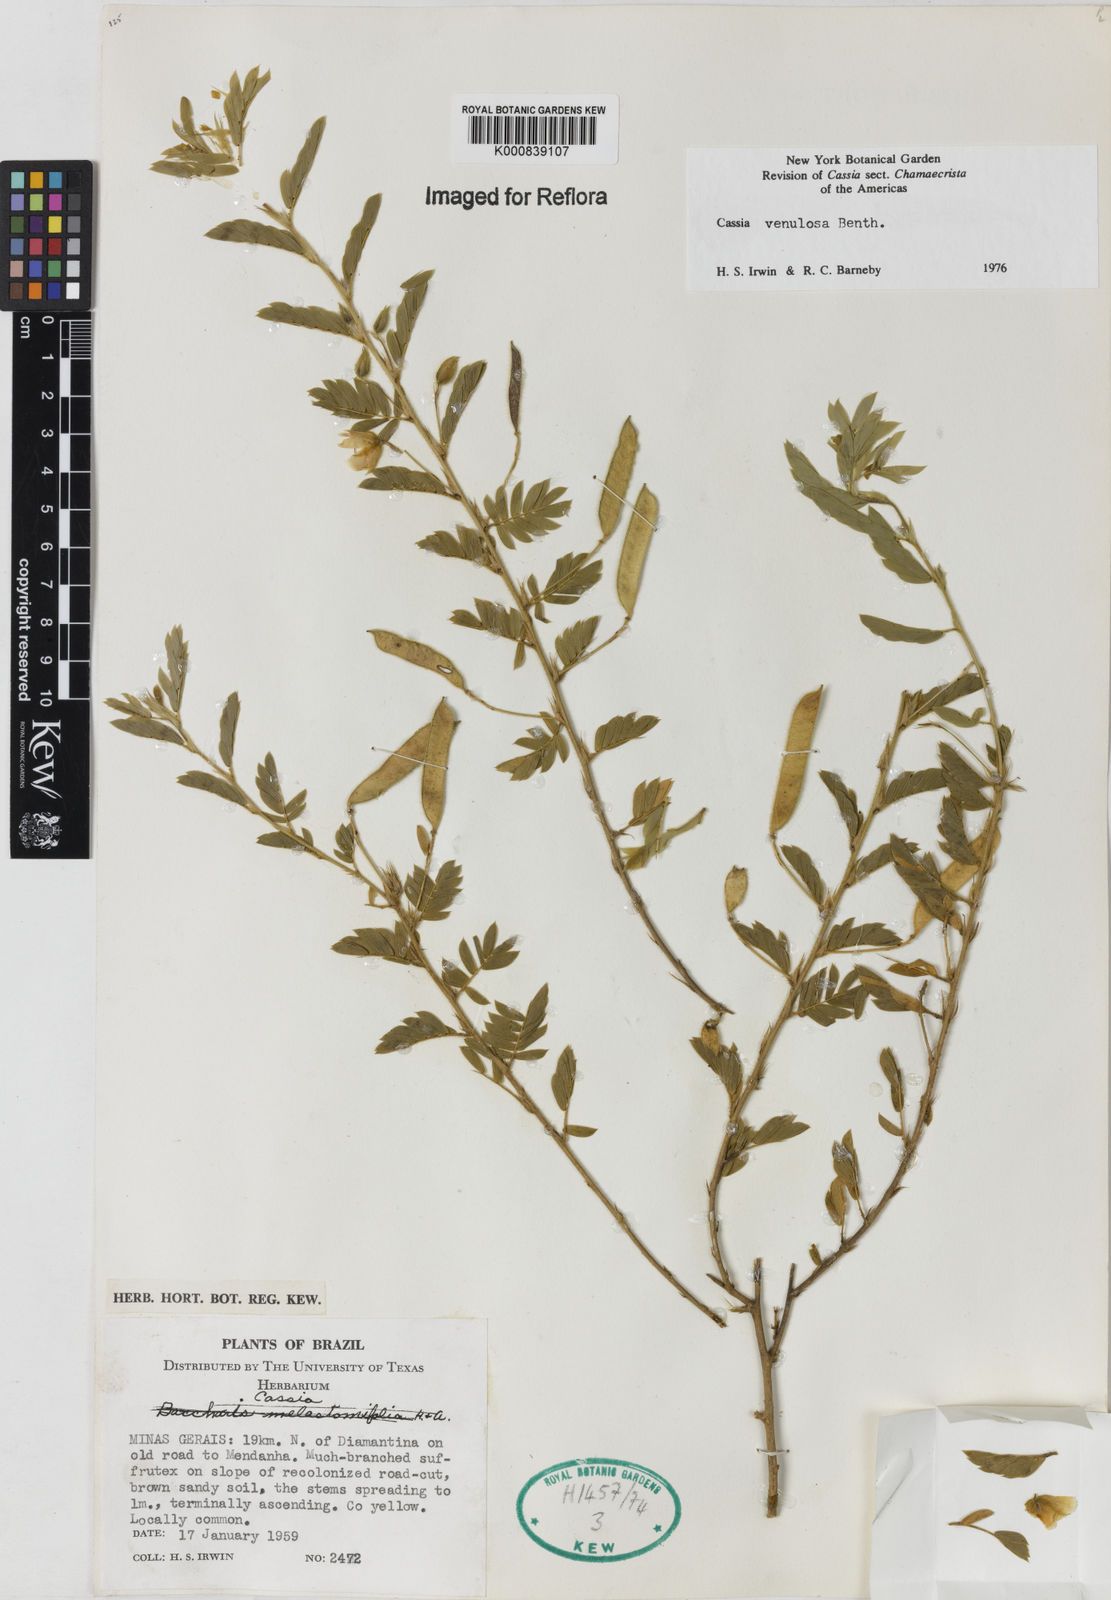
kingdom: Plantae
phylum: Tracheophyta
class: Magnoliopsida
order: Fabales
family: Fabaceae
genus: Chamaecrista
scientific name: Chamaecrista venulosa
